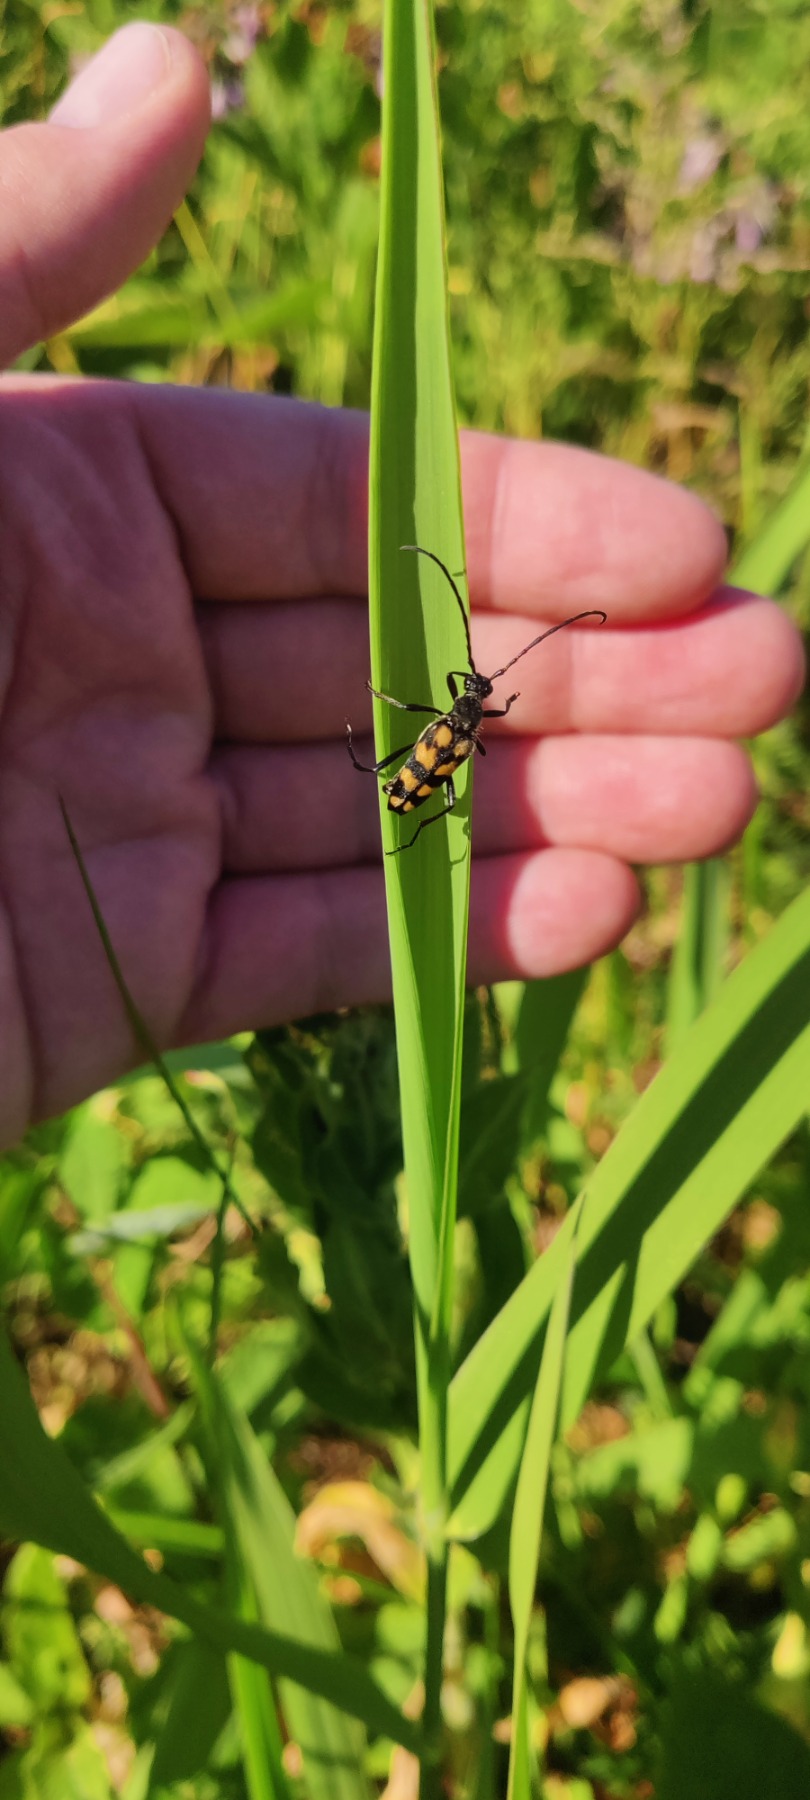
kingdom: Animalia
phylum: Arthropoda
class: Insecta
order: Coleoptera
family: Cerambycidae
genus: Leptura
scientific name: Leptura quadrifasciata
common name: Firebåndet blomsterbuk
